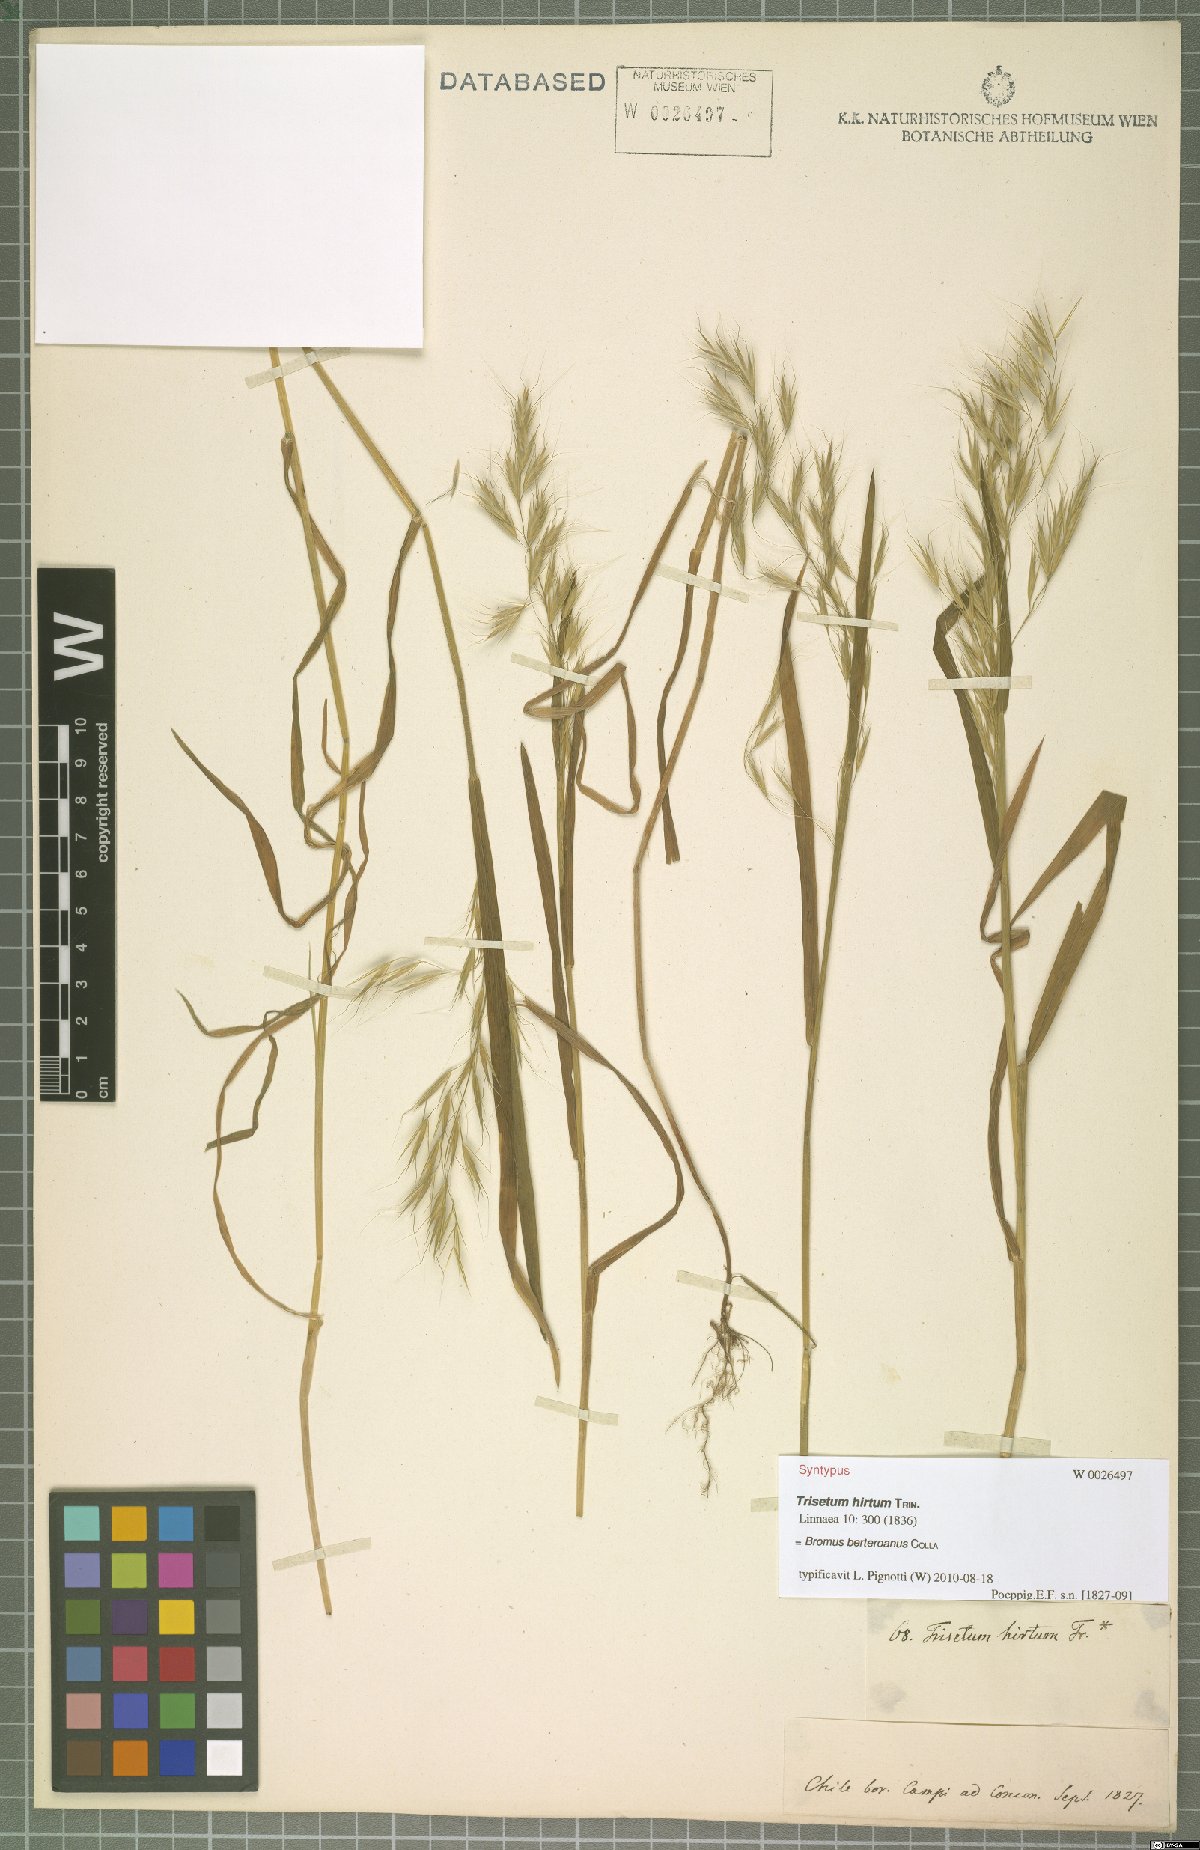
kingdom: Plantae
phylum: Tracheophyta
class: Liliopsida
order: Poales
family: Poaceae
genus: Bromus
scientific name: Bromus berteroanus
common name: Chilean chess
